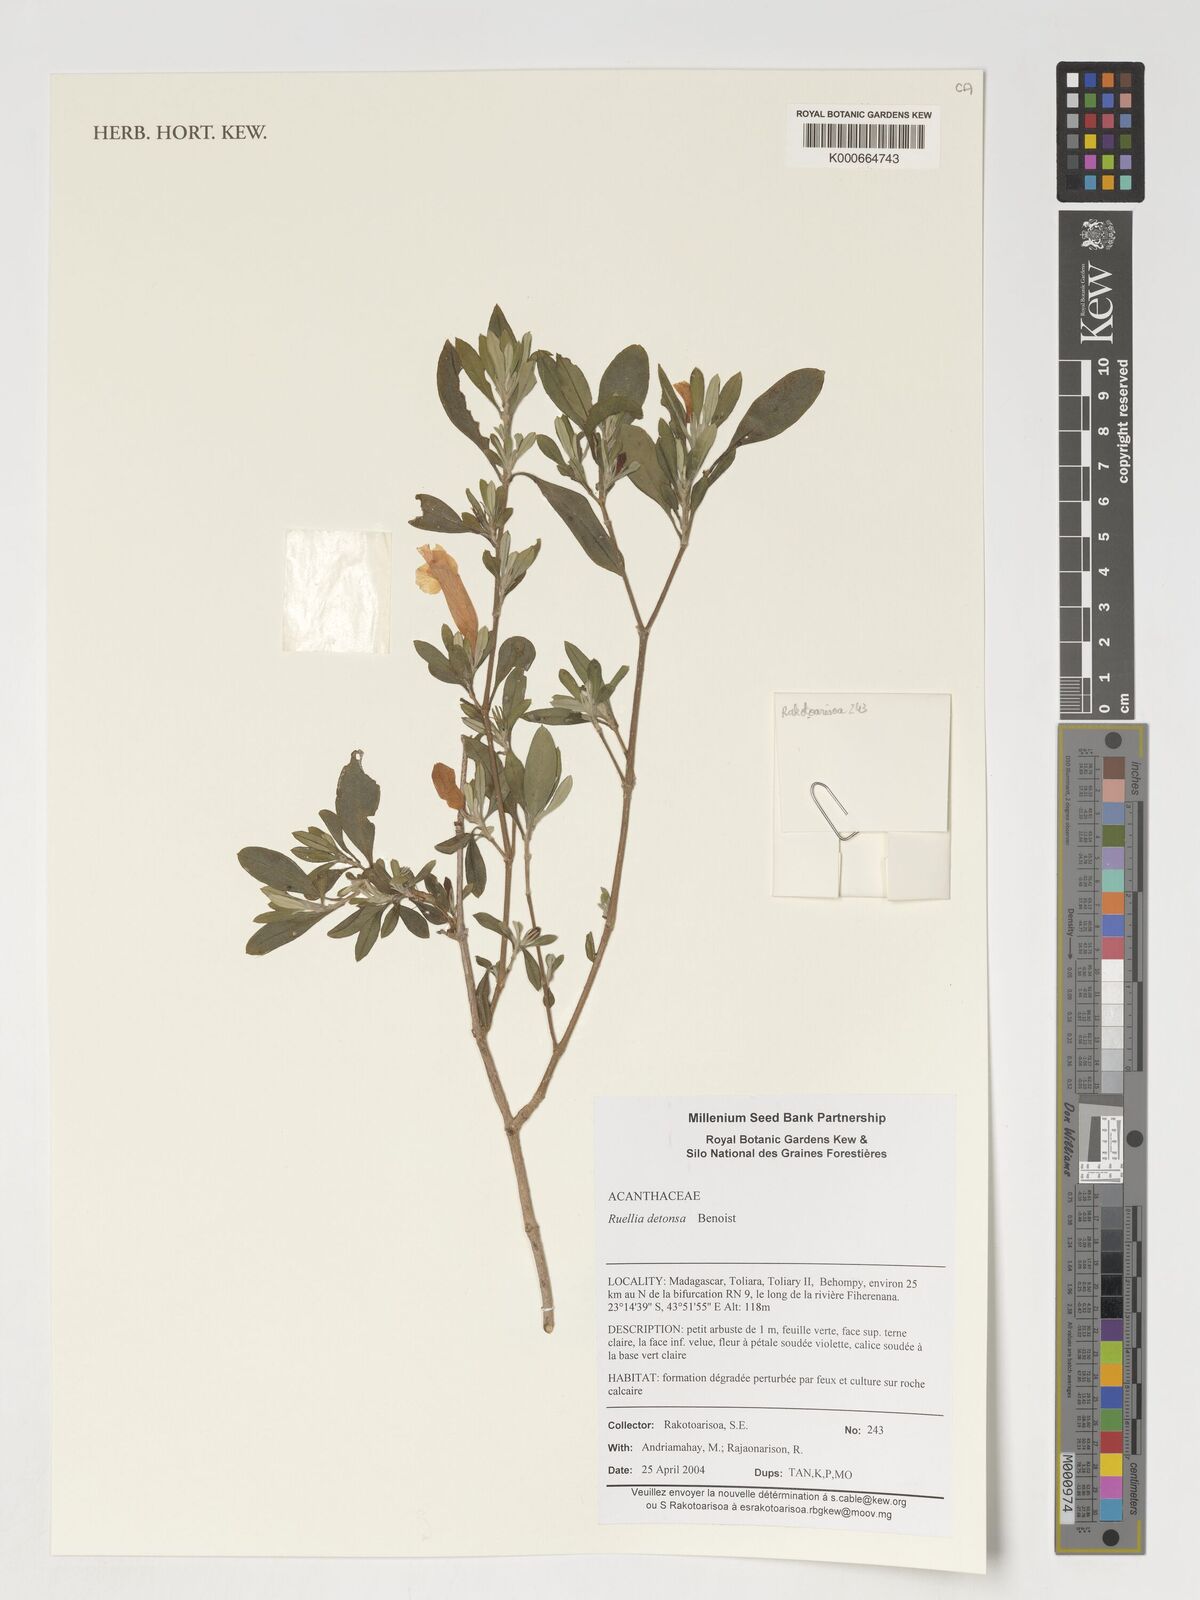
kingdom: Plantae
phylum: Tracheophyta
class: Magnoliopsida
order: Lamiales
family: Acanthaceae
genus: Ruellia
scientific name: Ruellia detonsa
